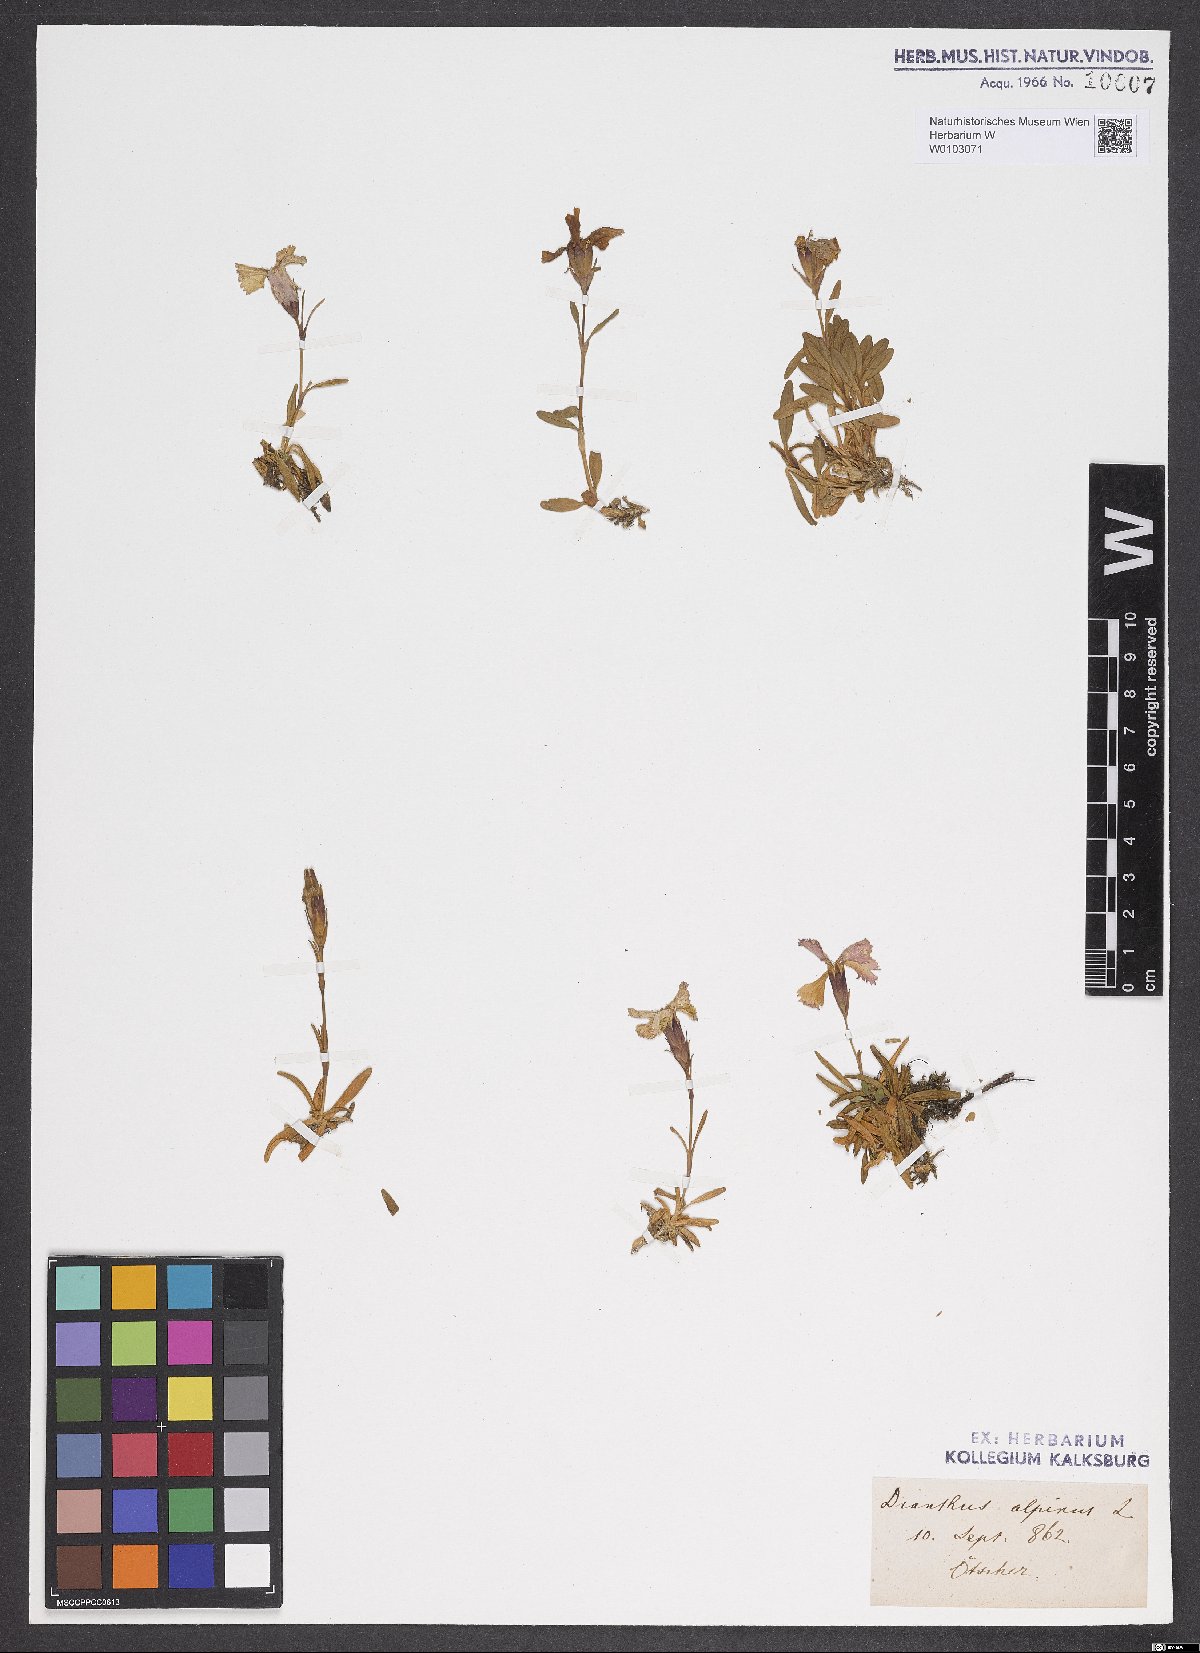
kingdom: Plantae
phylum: Tracheophyta
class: Magnoliopsida
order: Caryophyllales
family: Caryophyllaceae
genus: Dianthus
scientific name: Dianthus alpinus
